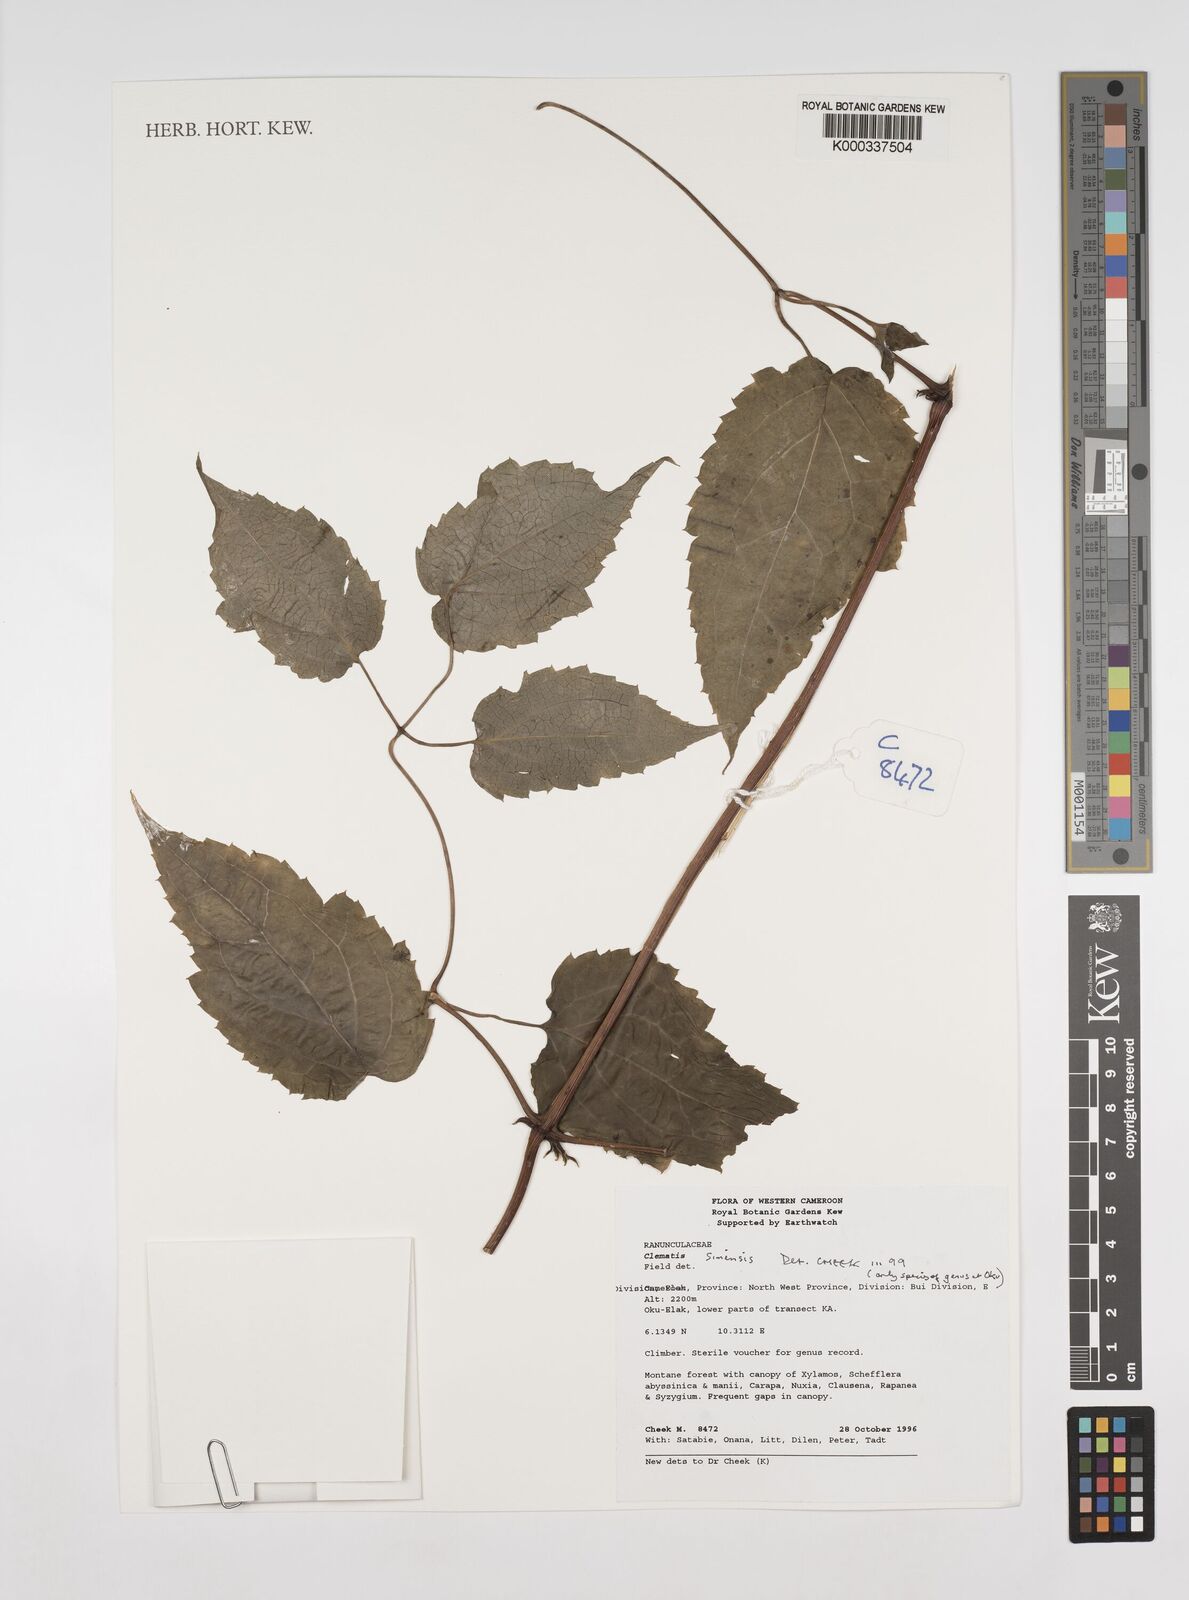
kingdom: Plantae
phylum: Tracheophyta
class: Magnoliopsida
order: Ranunculales
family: Ranunculaceae
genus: Clematis
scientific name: Clematis grandiflora
